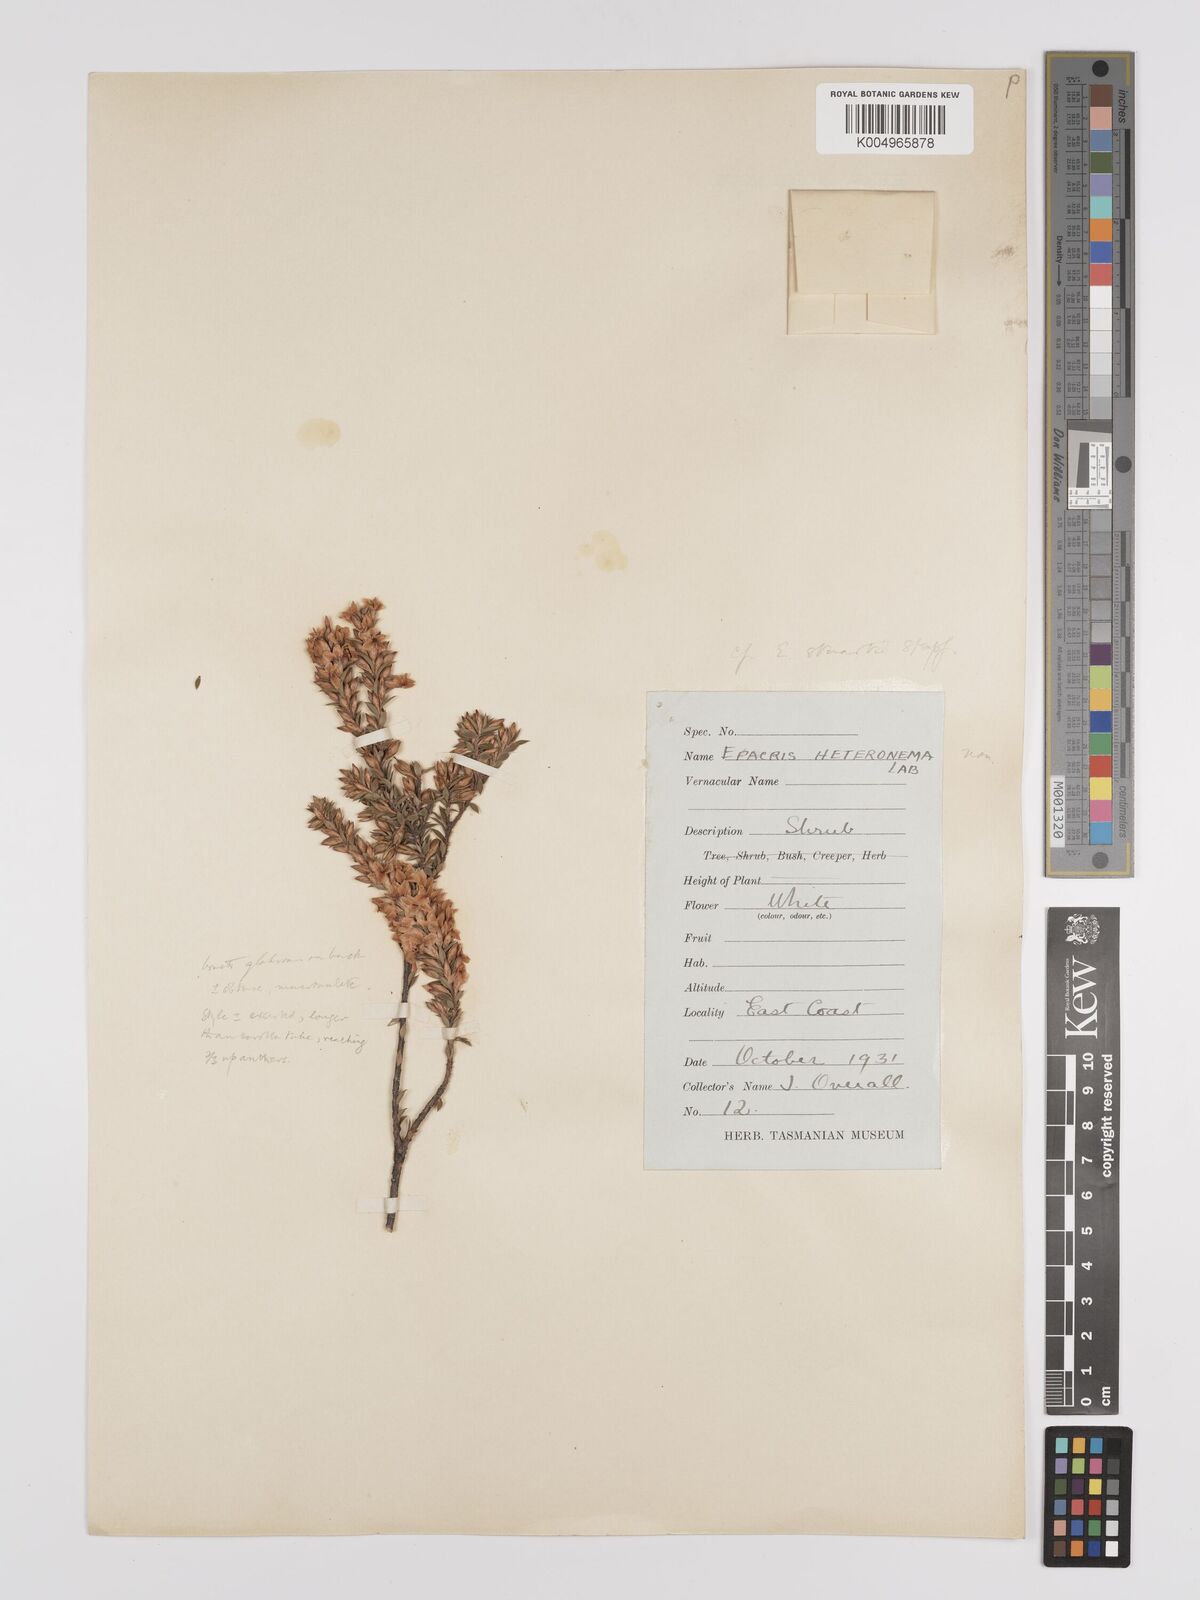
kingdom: Plantae
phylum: Tracheophyta
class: Magnoliopsida
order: Ericales
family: Ericaceae
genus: Epacris
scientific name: Epacris comberi
